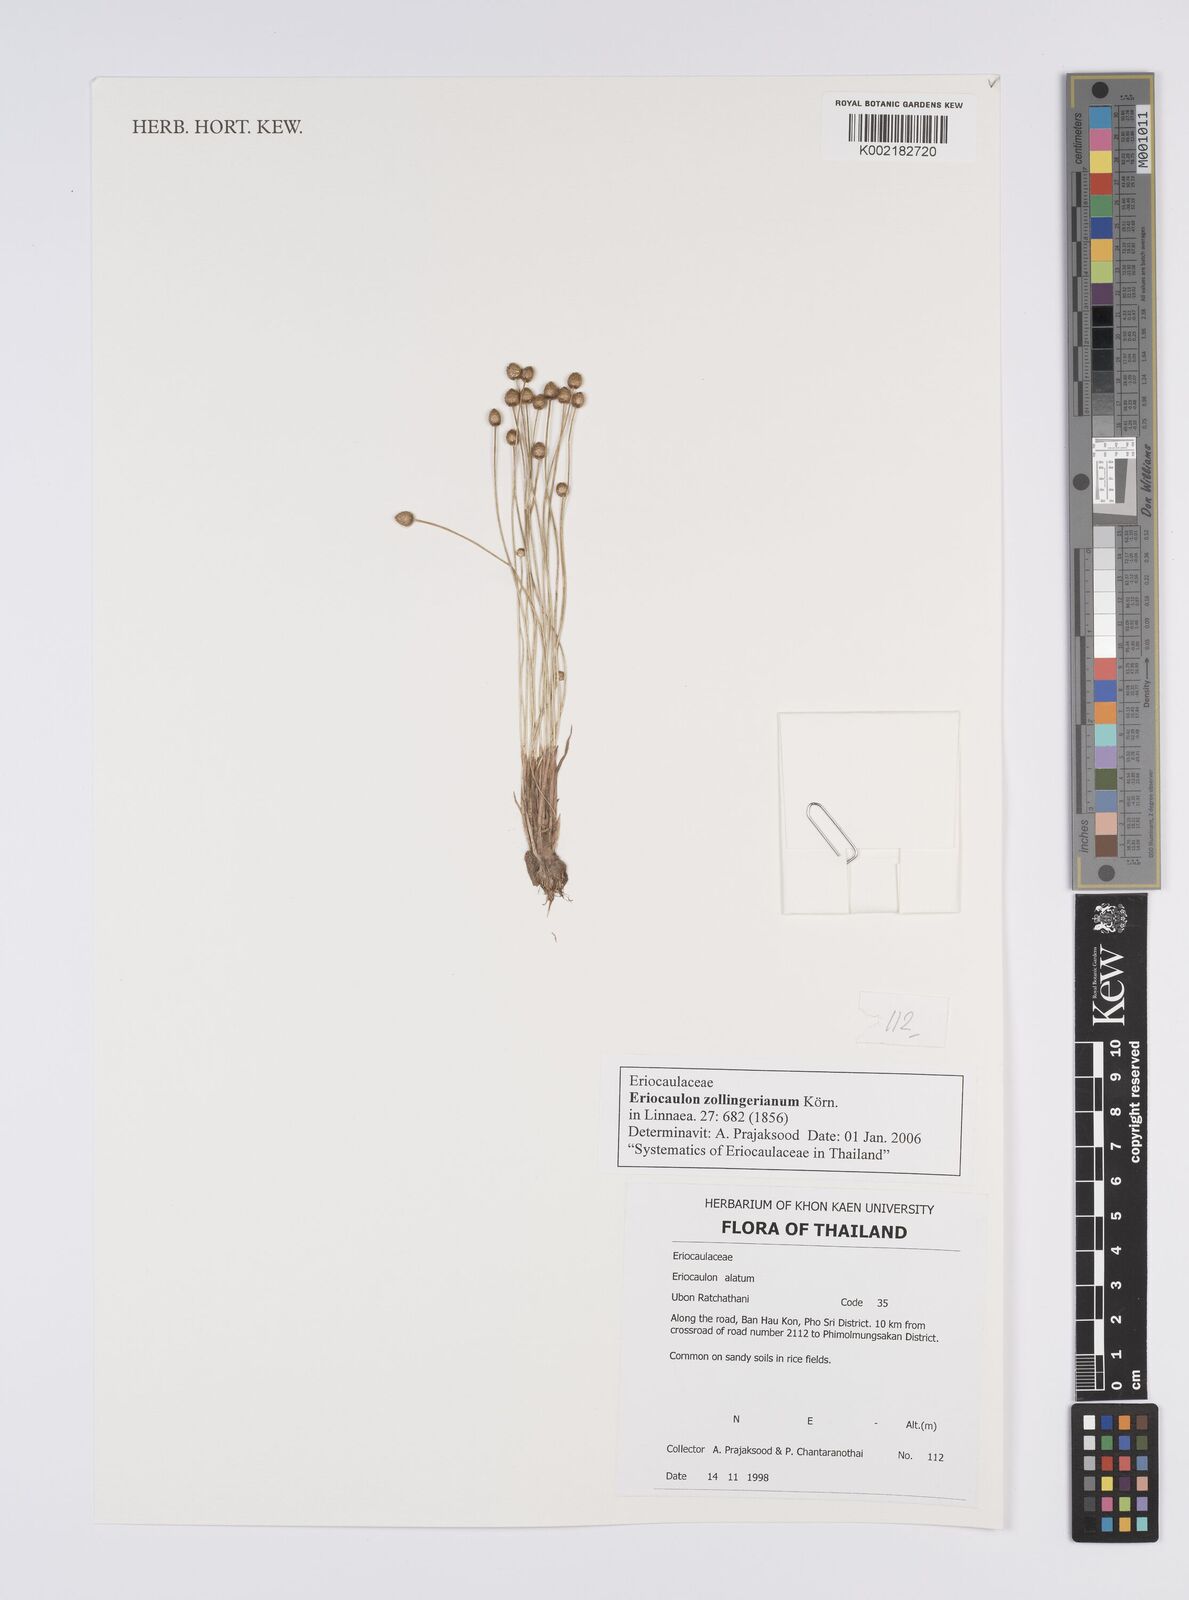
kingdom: Plantae
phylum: Tracheophyta
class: Liliopsida
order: Poales
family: Eriocaulaceae
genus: Eriocaulon
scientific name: Eriocaulon zollingerianum
